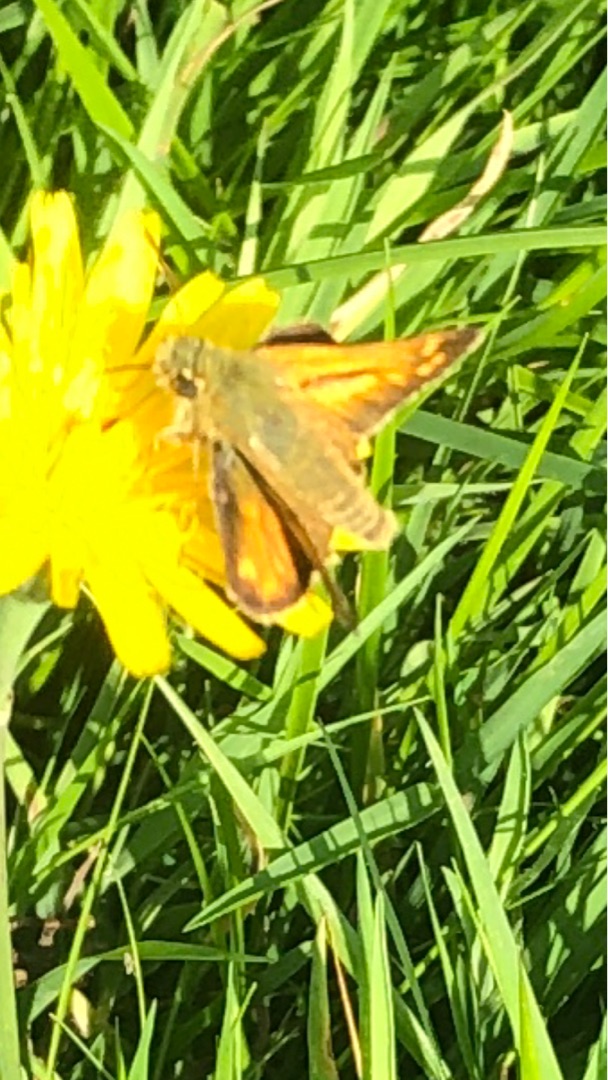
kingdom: Animalia
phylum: Arthropoda
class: Insecta
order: Lepidoptera
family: Hesperiidae
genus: Hesperia
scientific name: Hesperia comma
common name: Kommabredpande
